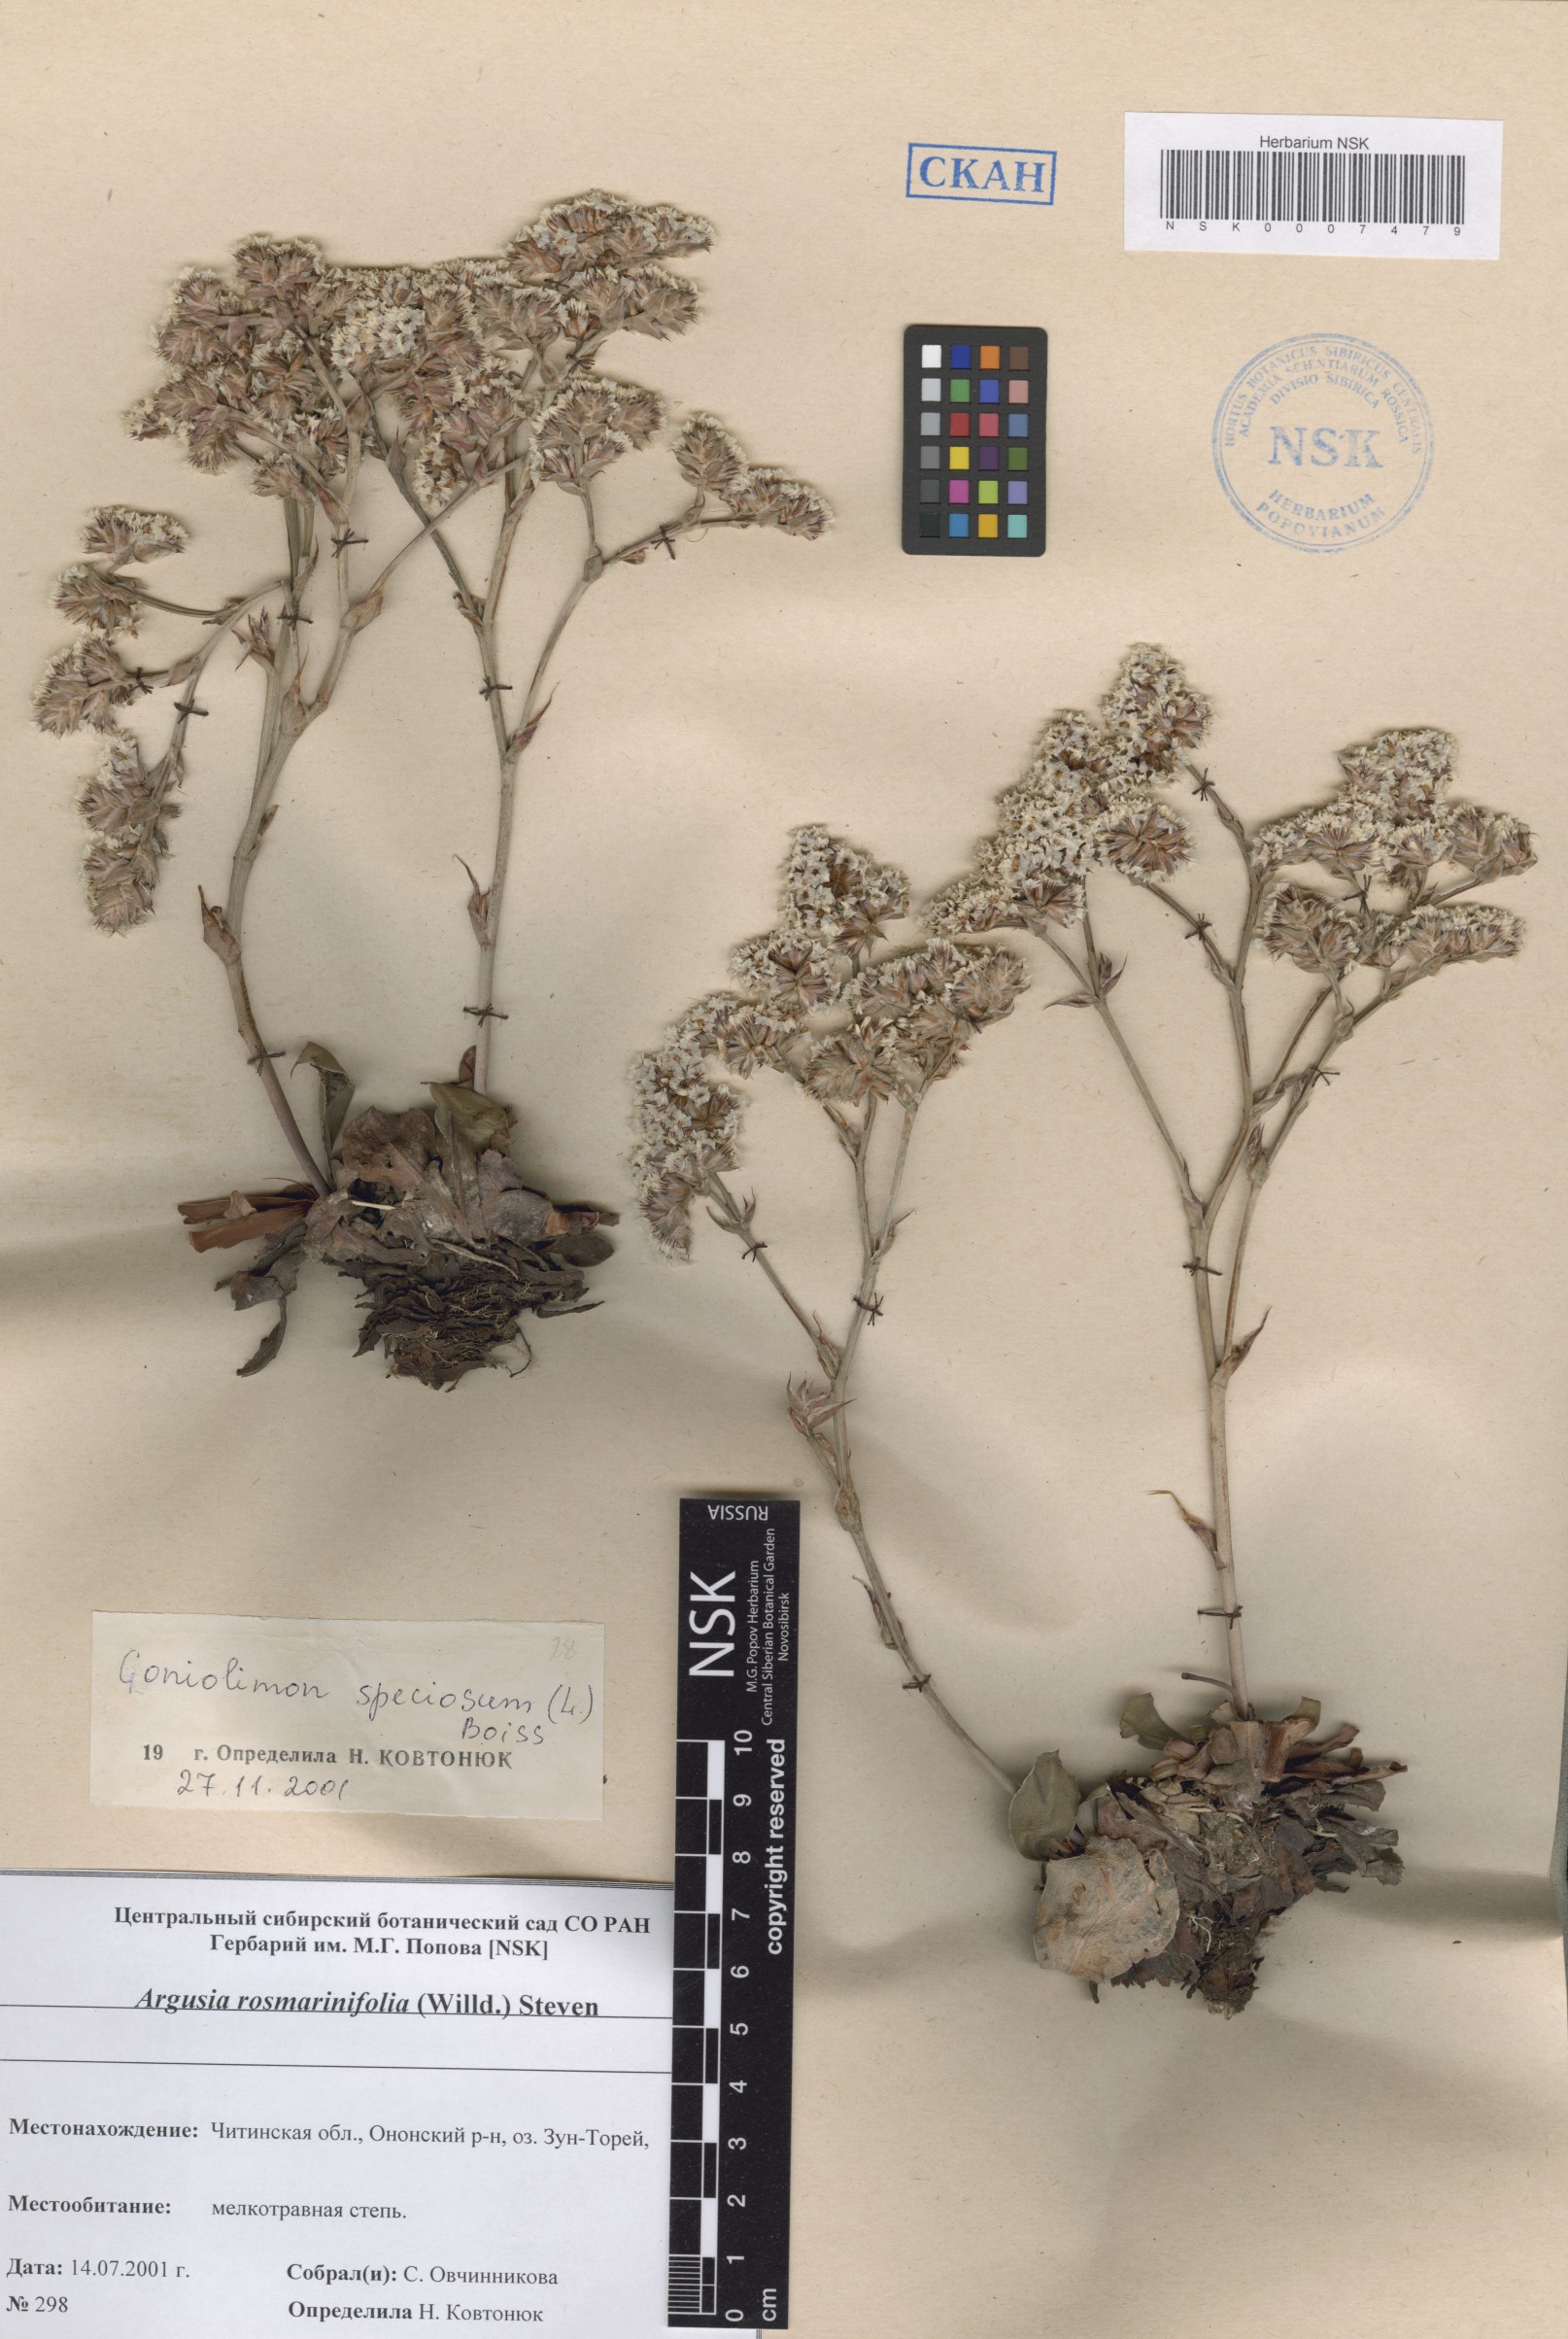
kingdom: Plantae
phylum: Tracheophyta
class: Magnoliopsida
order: Caryophyllales
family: Plumbaginaceae
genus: Goniolimon
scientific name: Goniolimon speciosum
